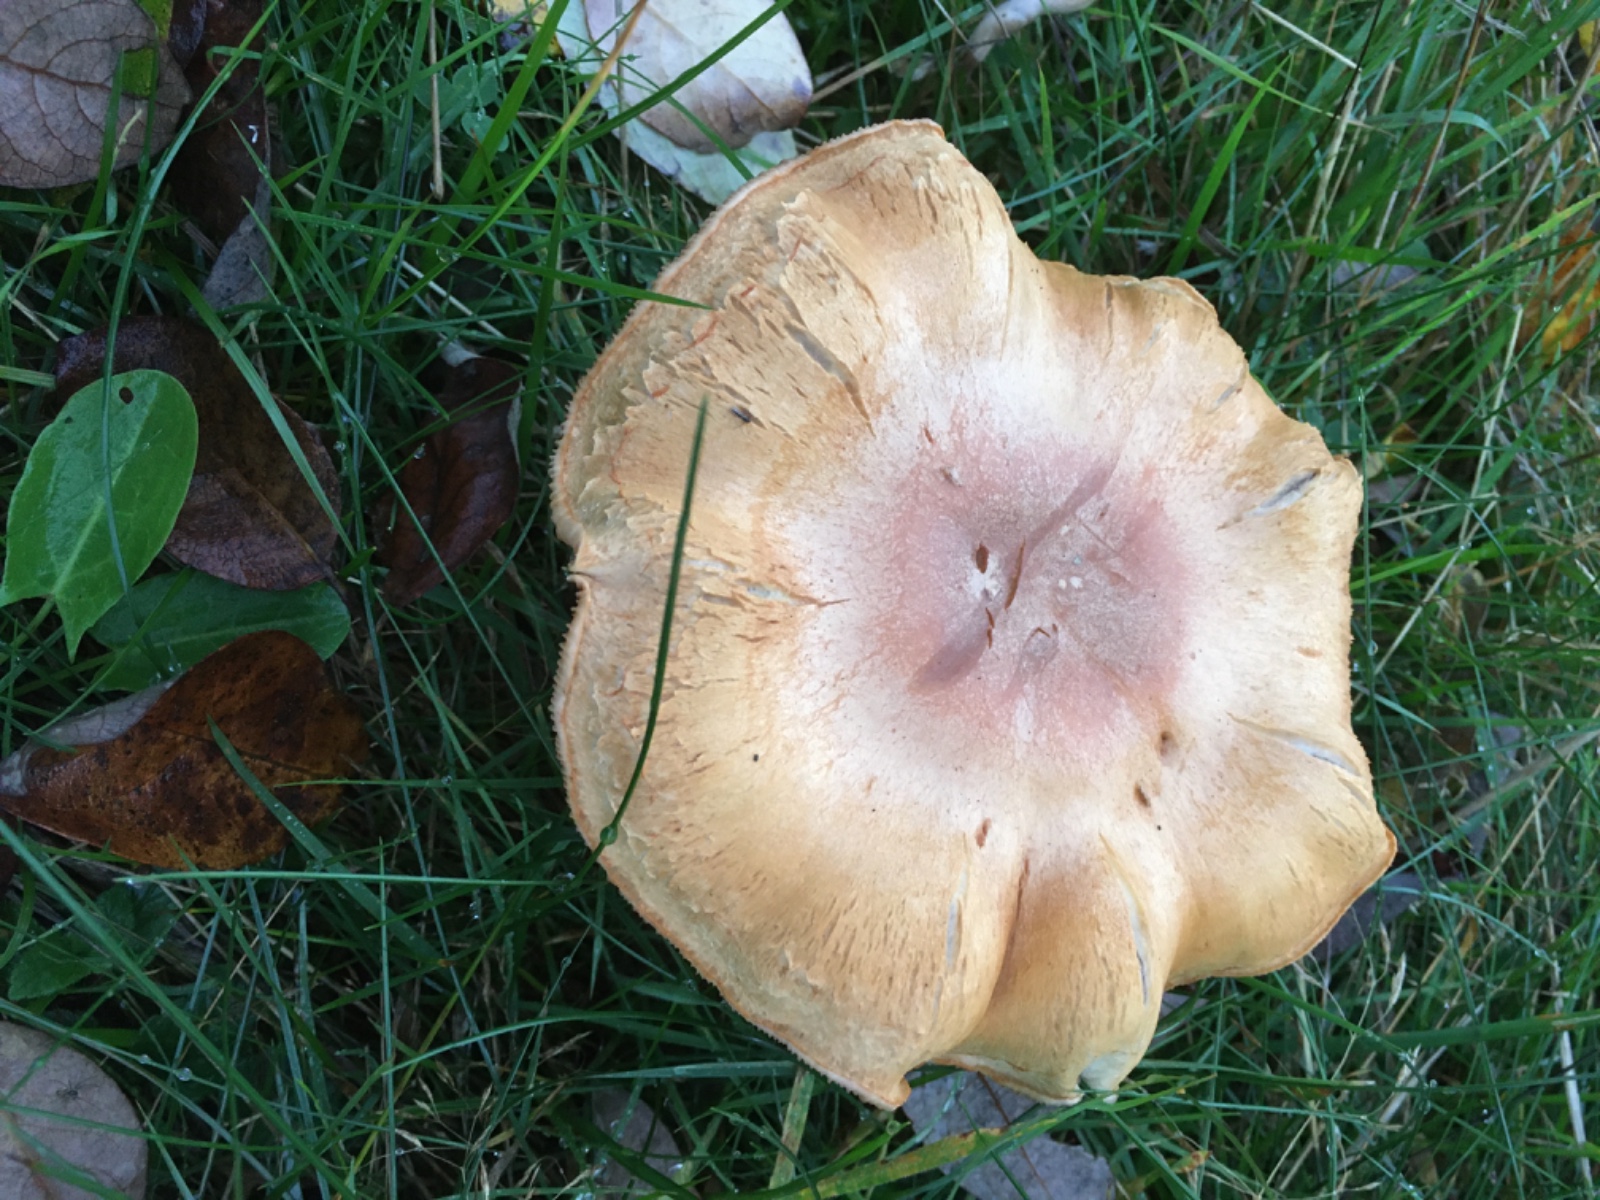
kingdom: Fungi
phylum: Basidiomycota
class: Agaricomycetes
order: Agaricales
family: Cortinariaceae
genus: Cortinarius
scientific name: Cortinarius
